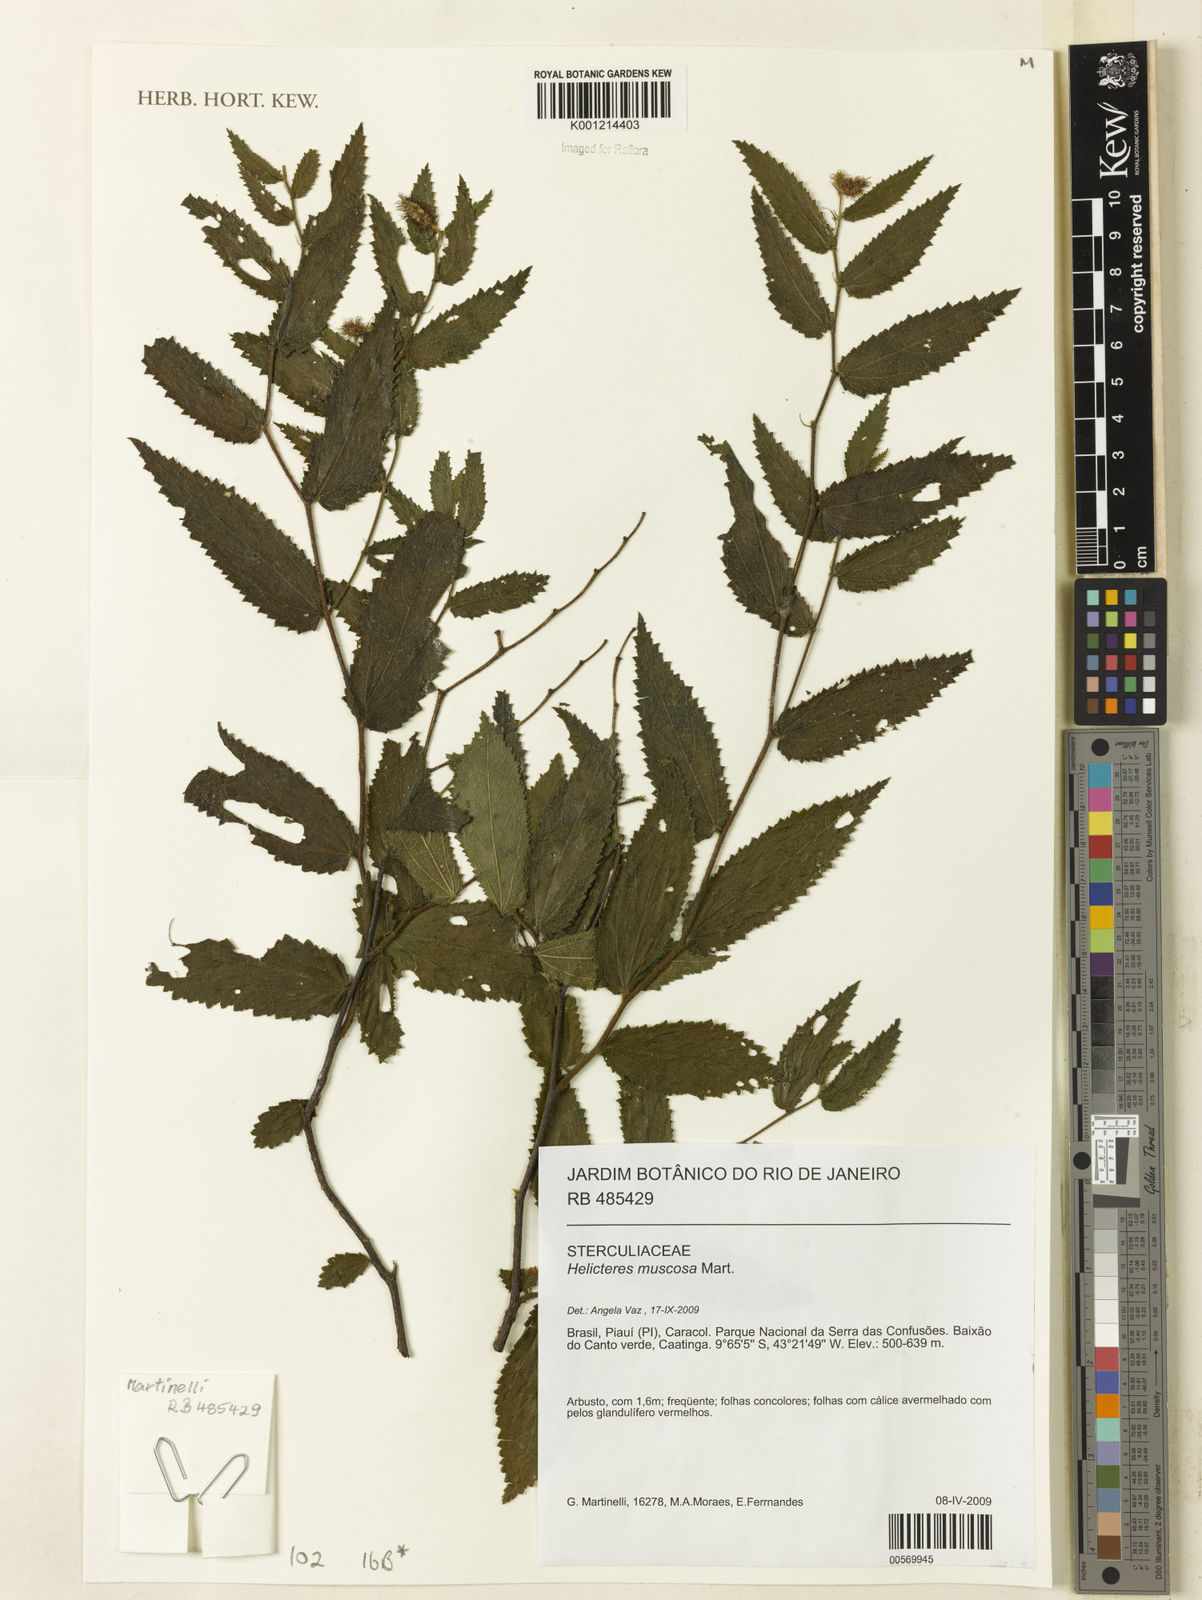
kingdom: Plantae
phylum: Tracheophyta
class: Magnoliopsida
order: Malvales
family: Malvaceae
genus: Helicteres
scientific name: Helicteres muscosa
